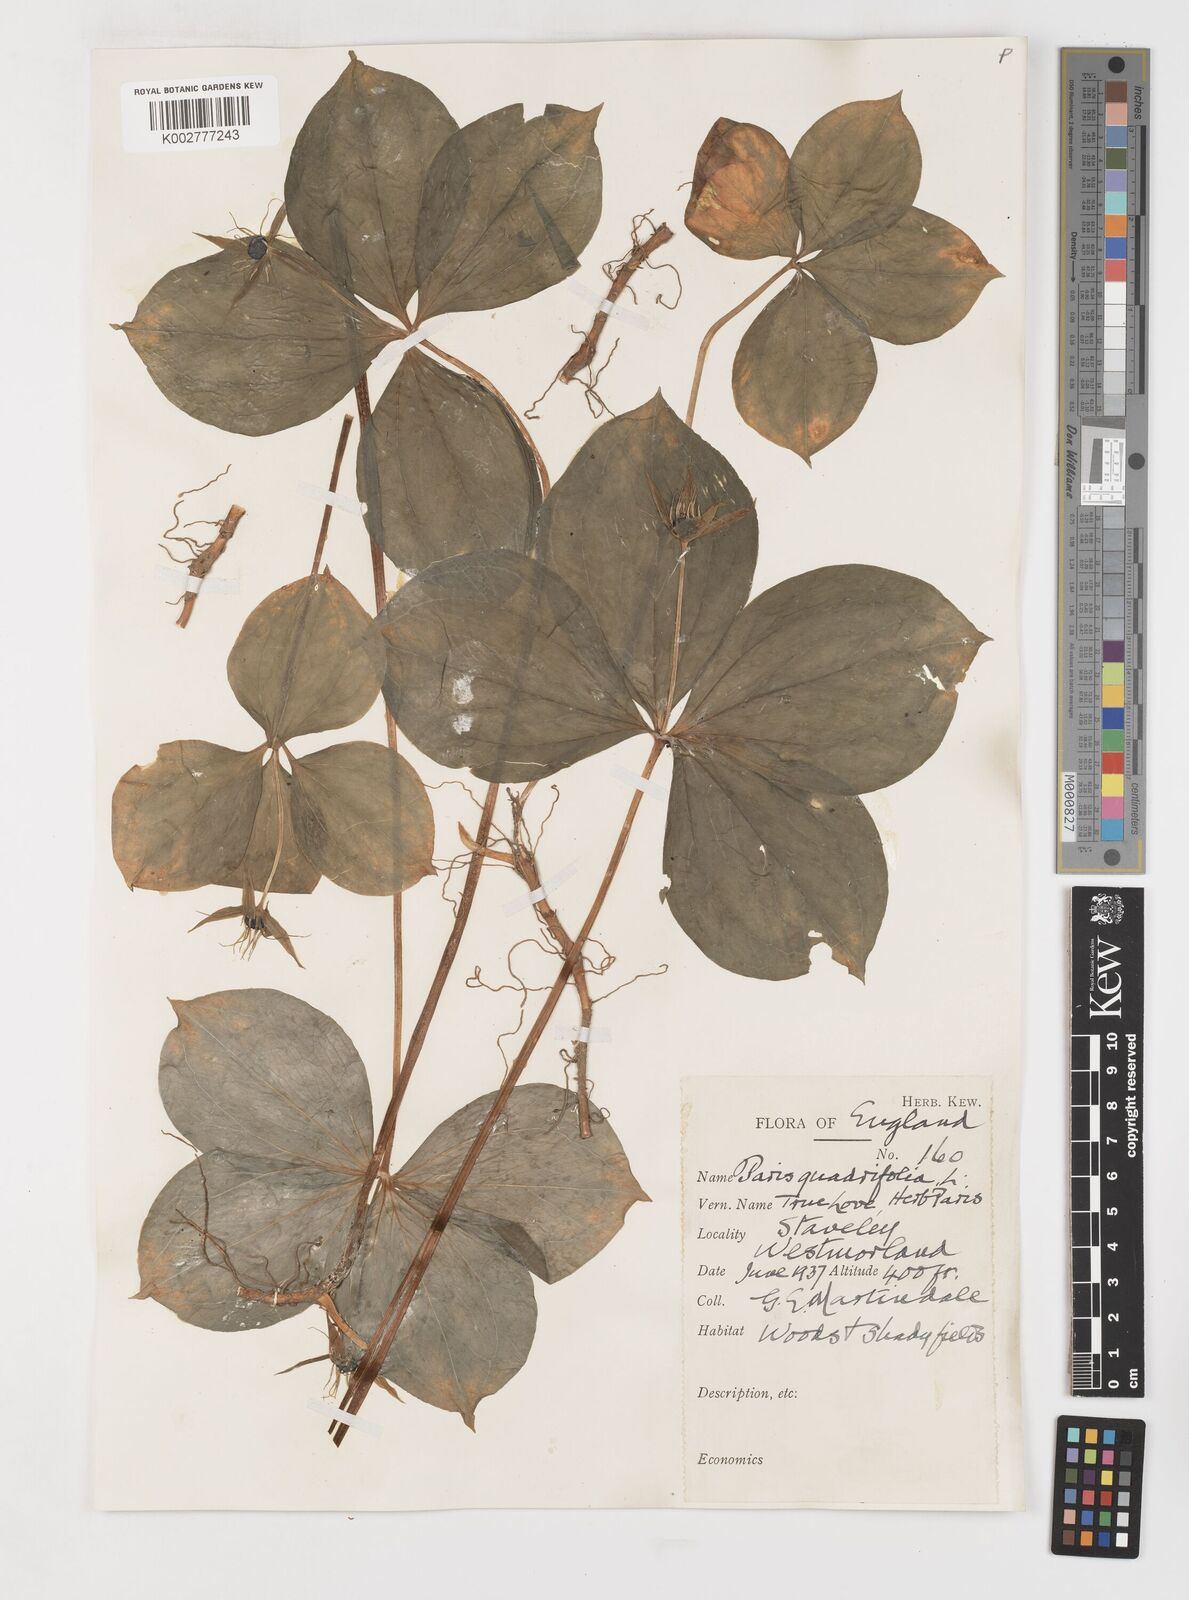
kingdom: Plantae
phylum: Tracheophyta
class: Liliopsida
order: Liliales
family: Melanthiaceae
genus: Paris
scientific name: Paris
